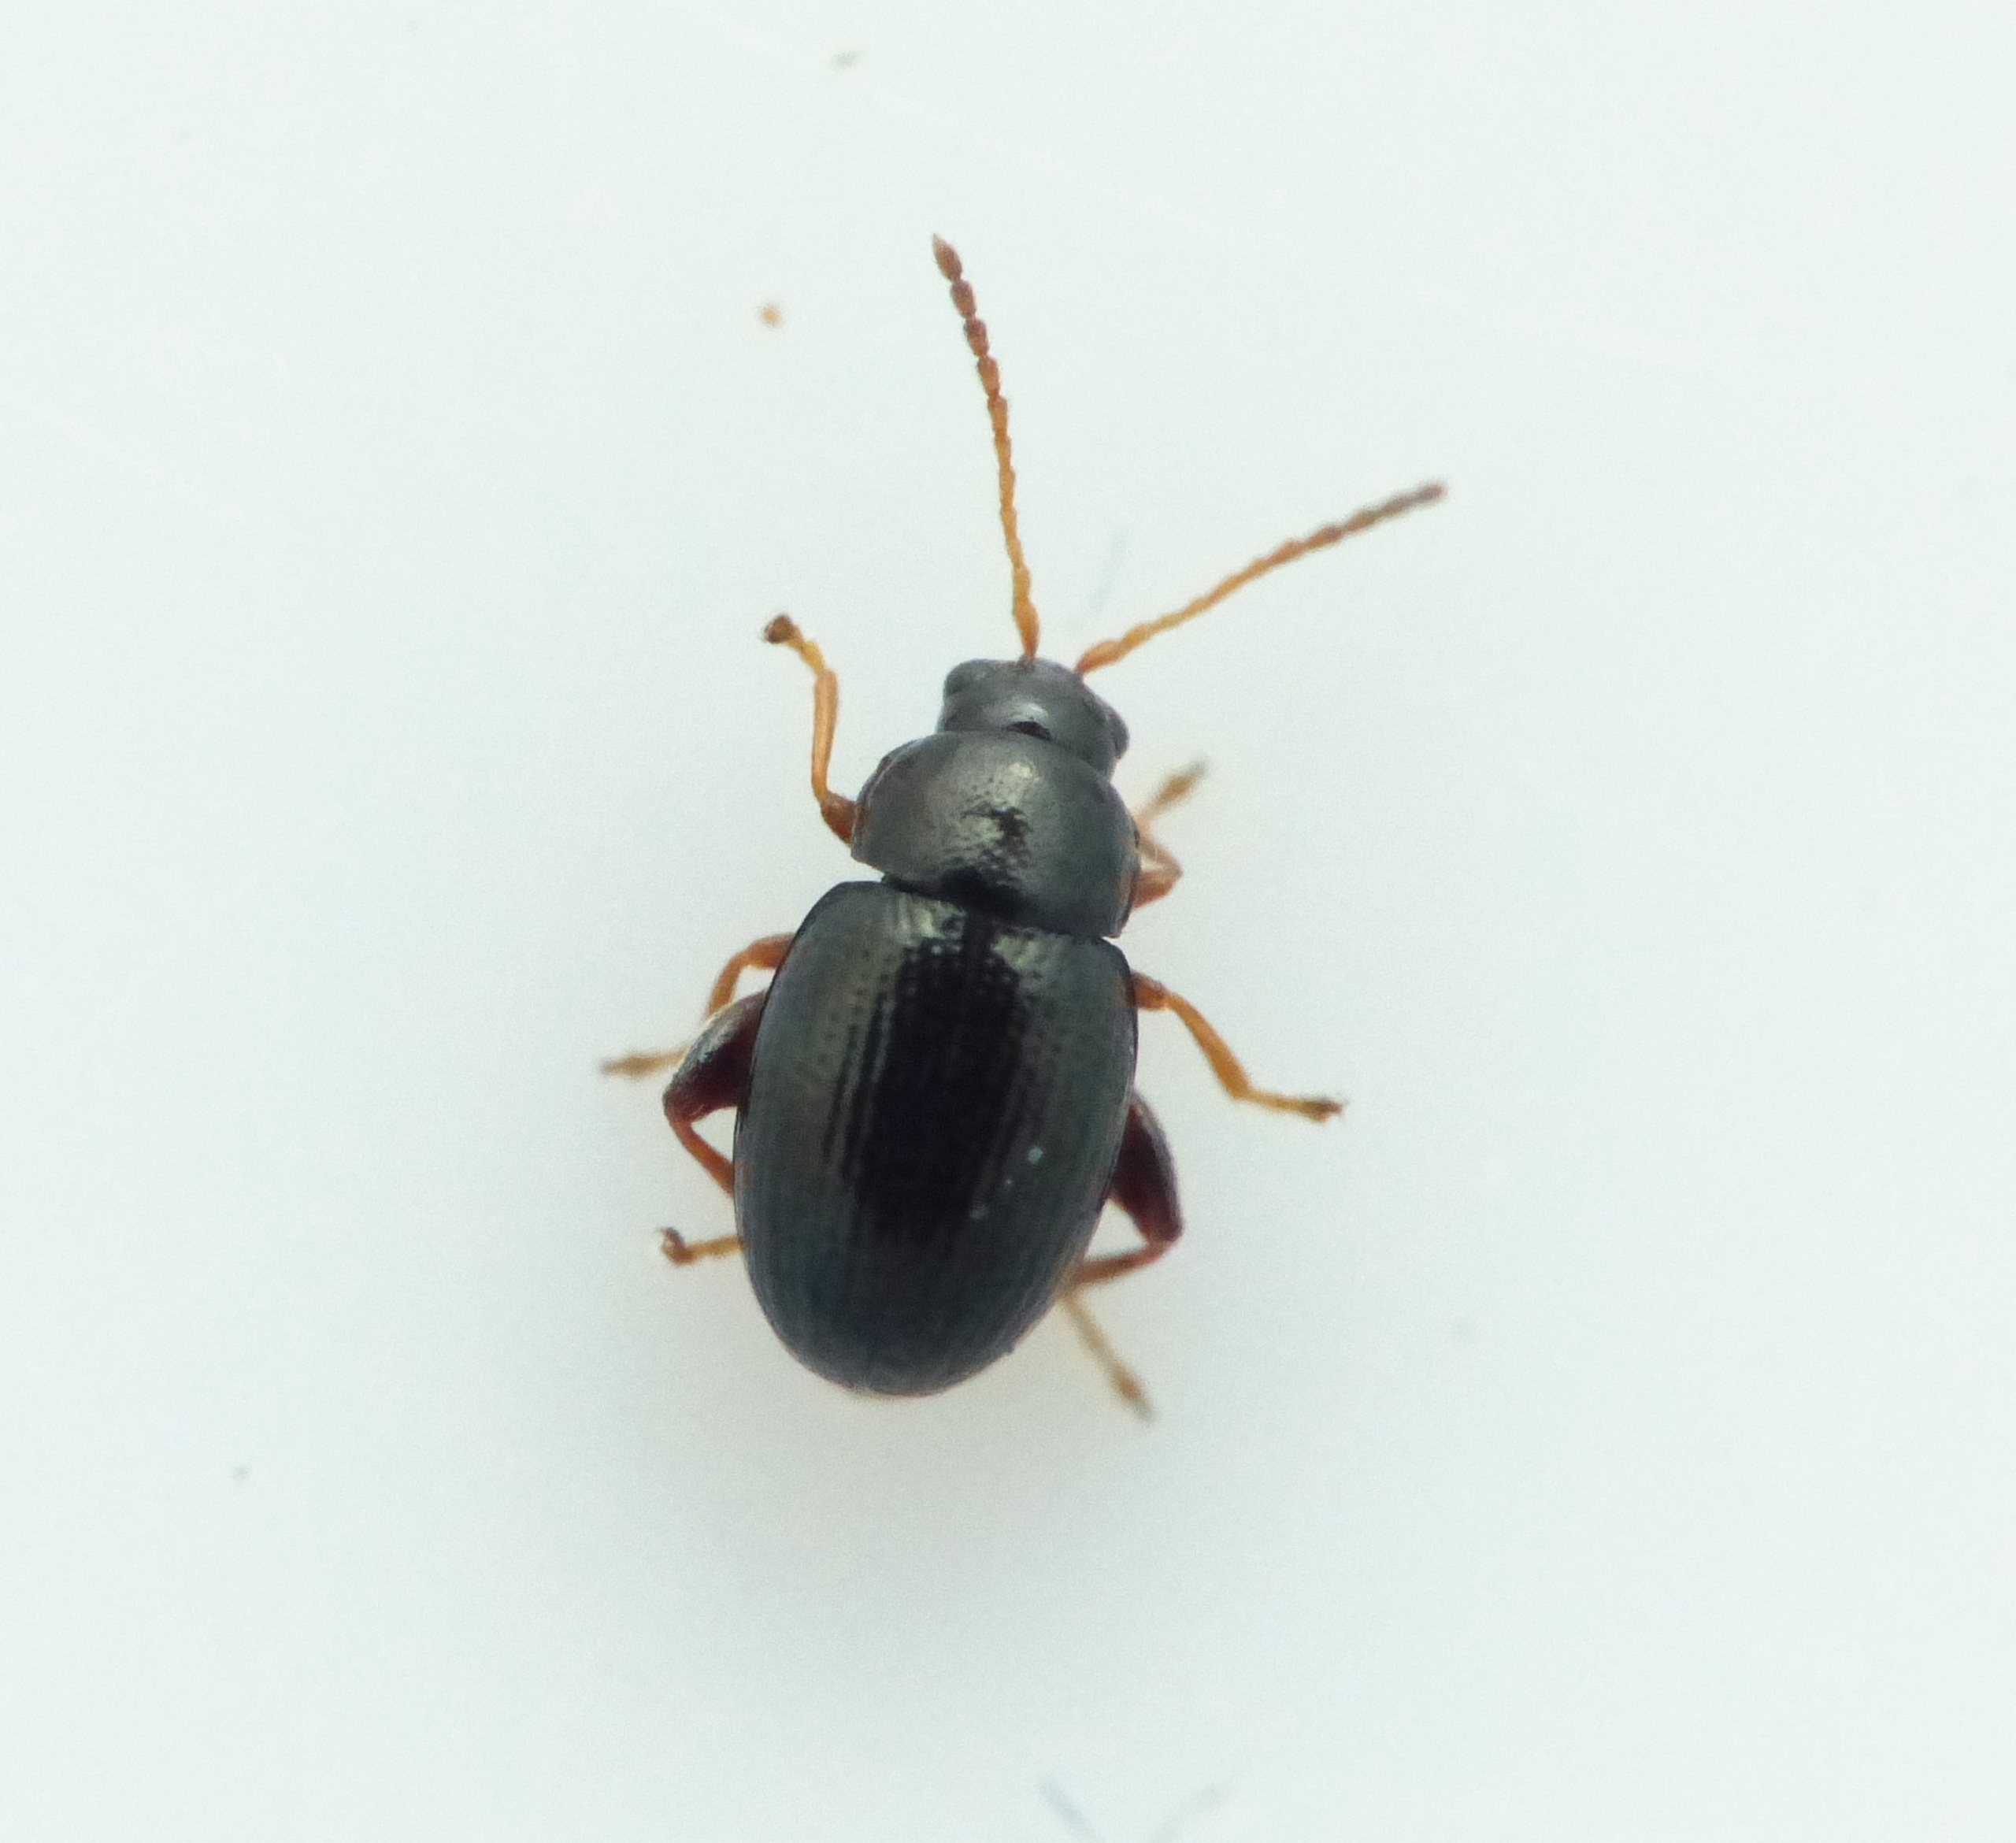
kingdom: Animalia
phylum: Arthropoda
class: Insecta
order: Coleoptera
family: Chrysomelidae
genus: Batophila
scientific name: Batophila rubi
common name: Hindbærjordloppe
